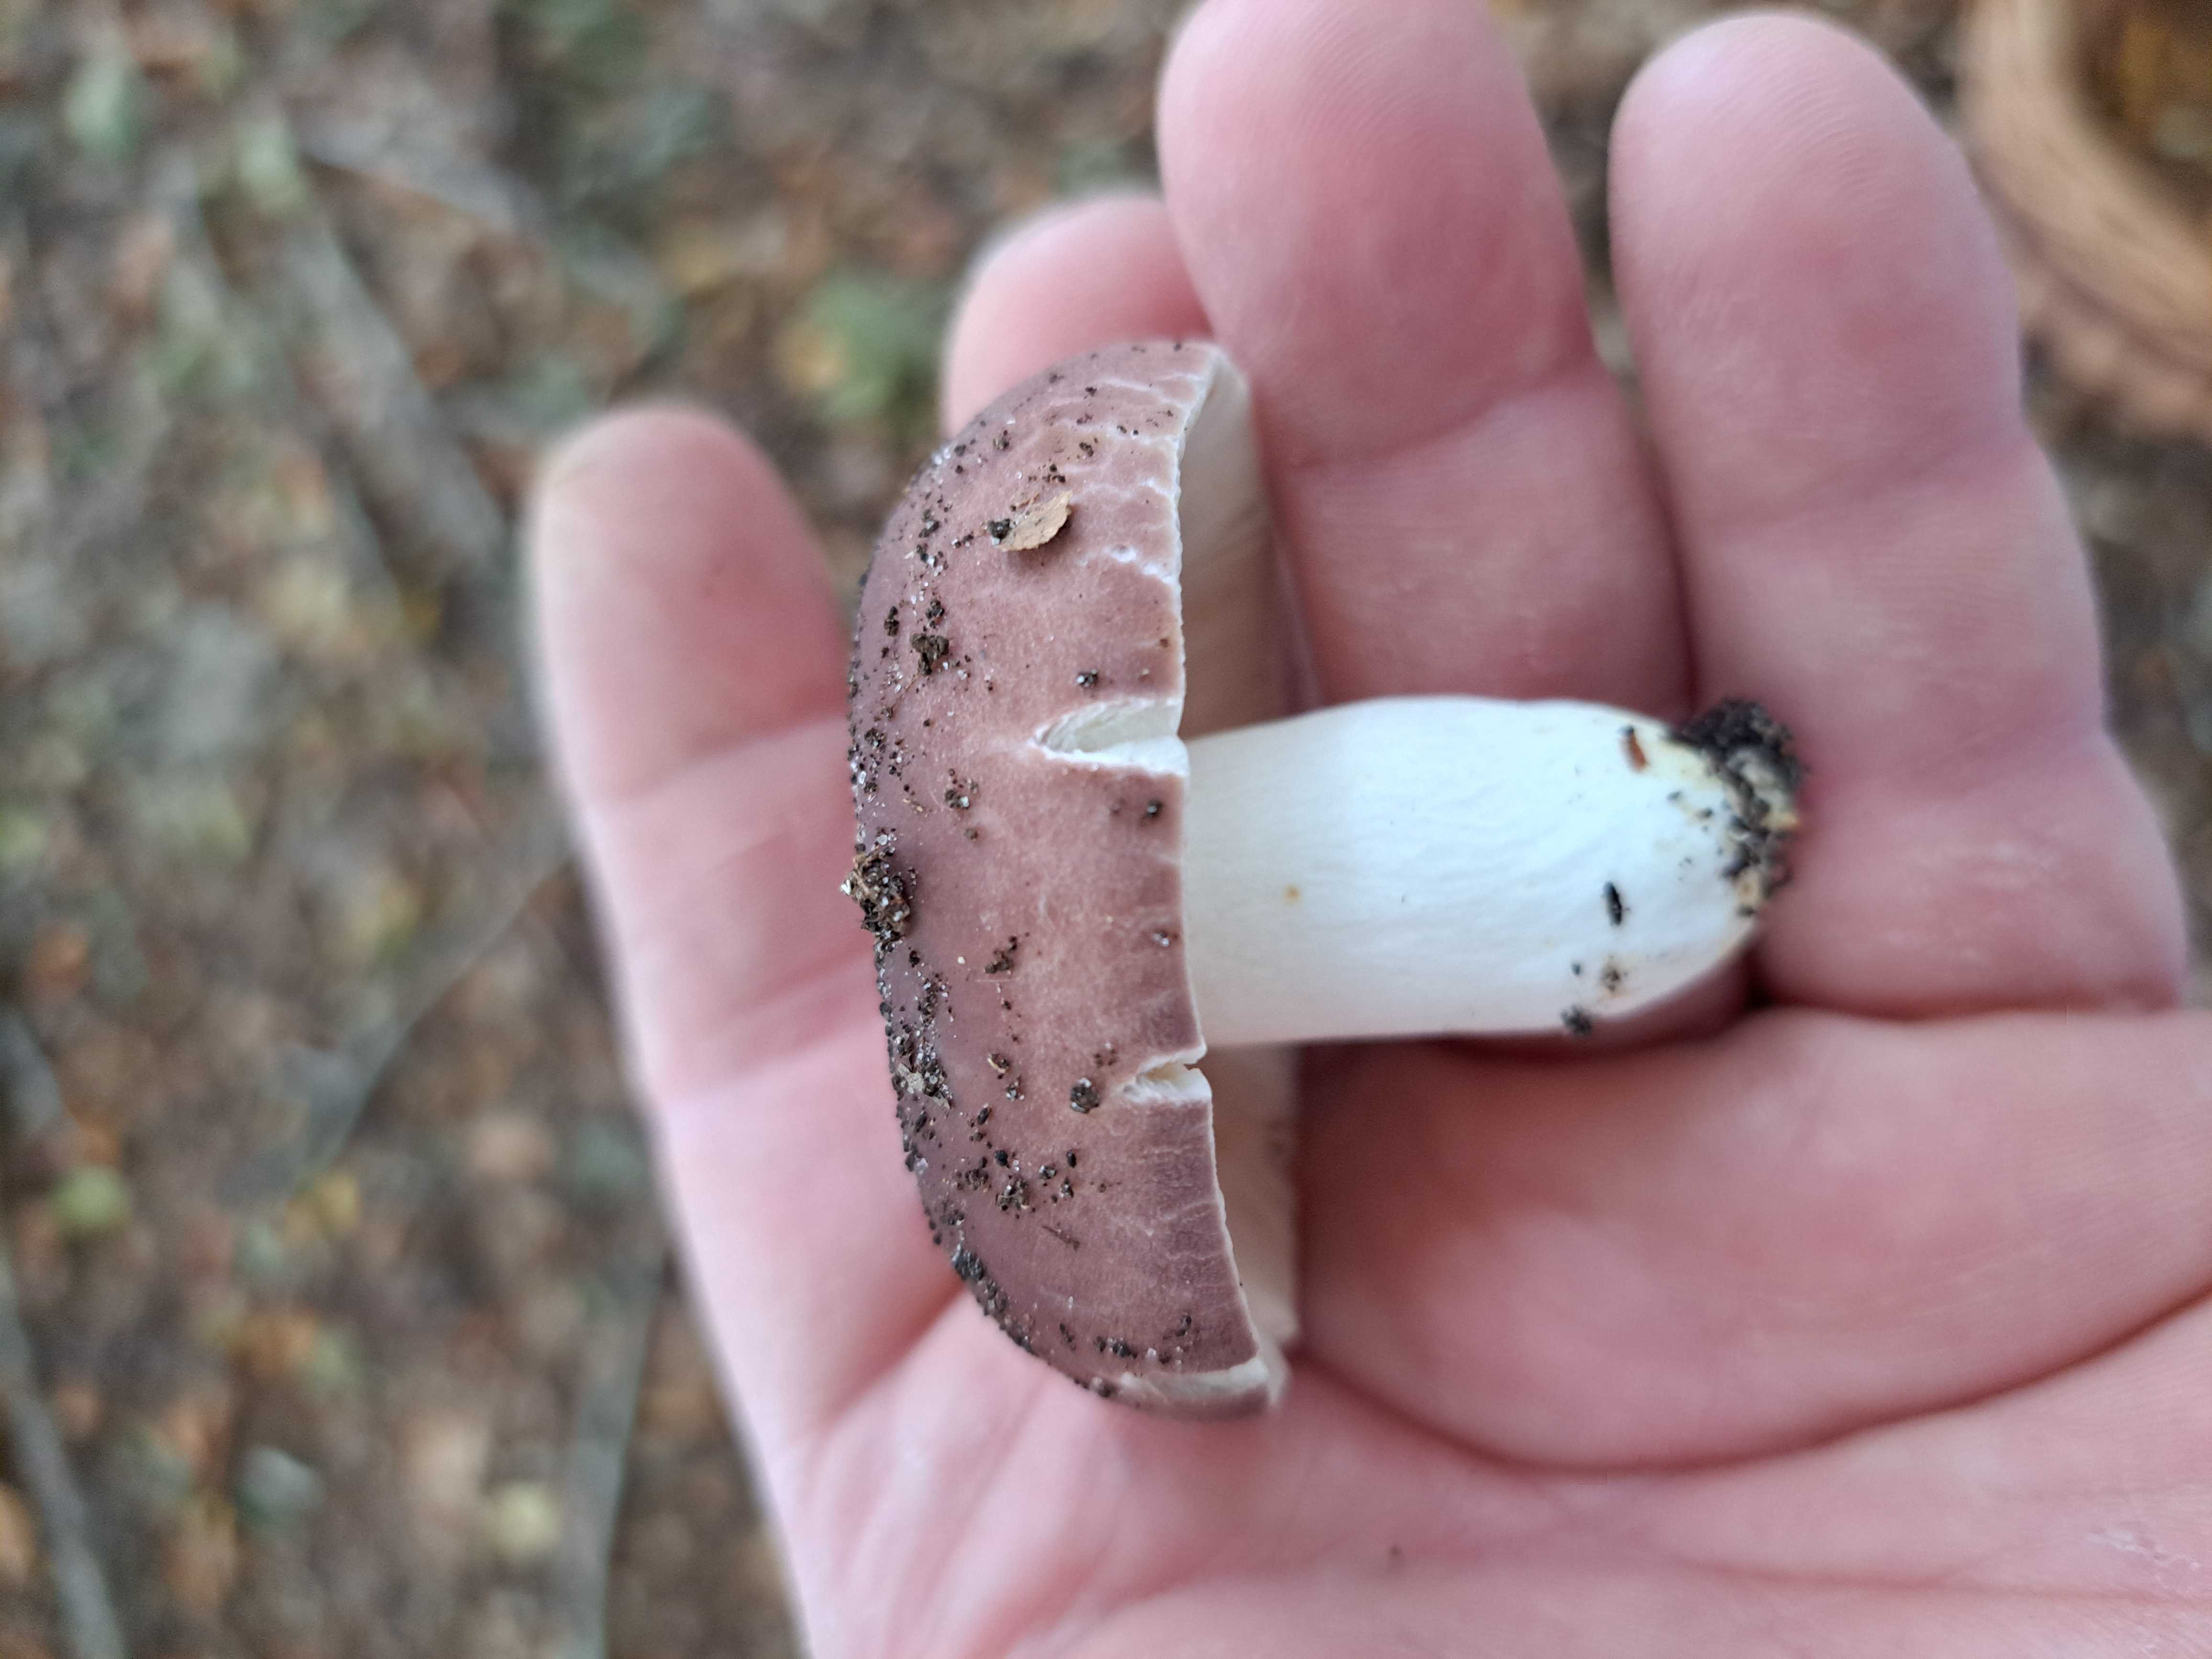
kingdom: Fungi
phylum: Basidiomycota
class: Agaricomycetes
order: Russulales
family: Russulaceae
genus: Russula
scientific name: Russula vesca
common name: spiselig skørhat
